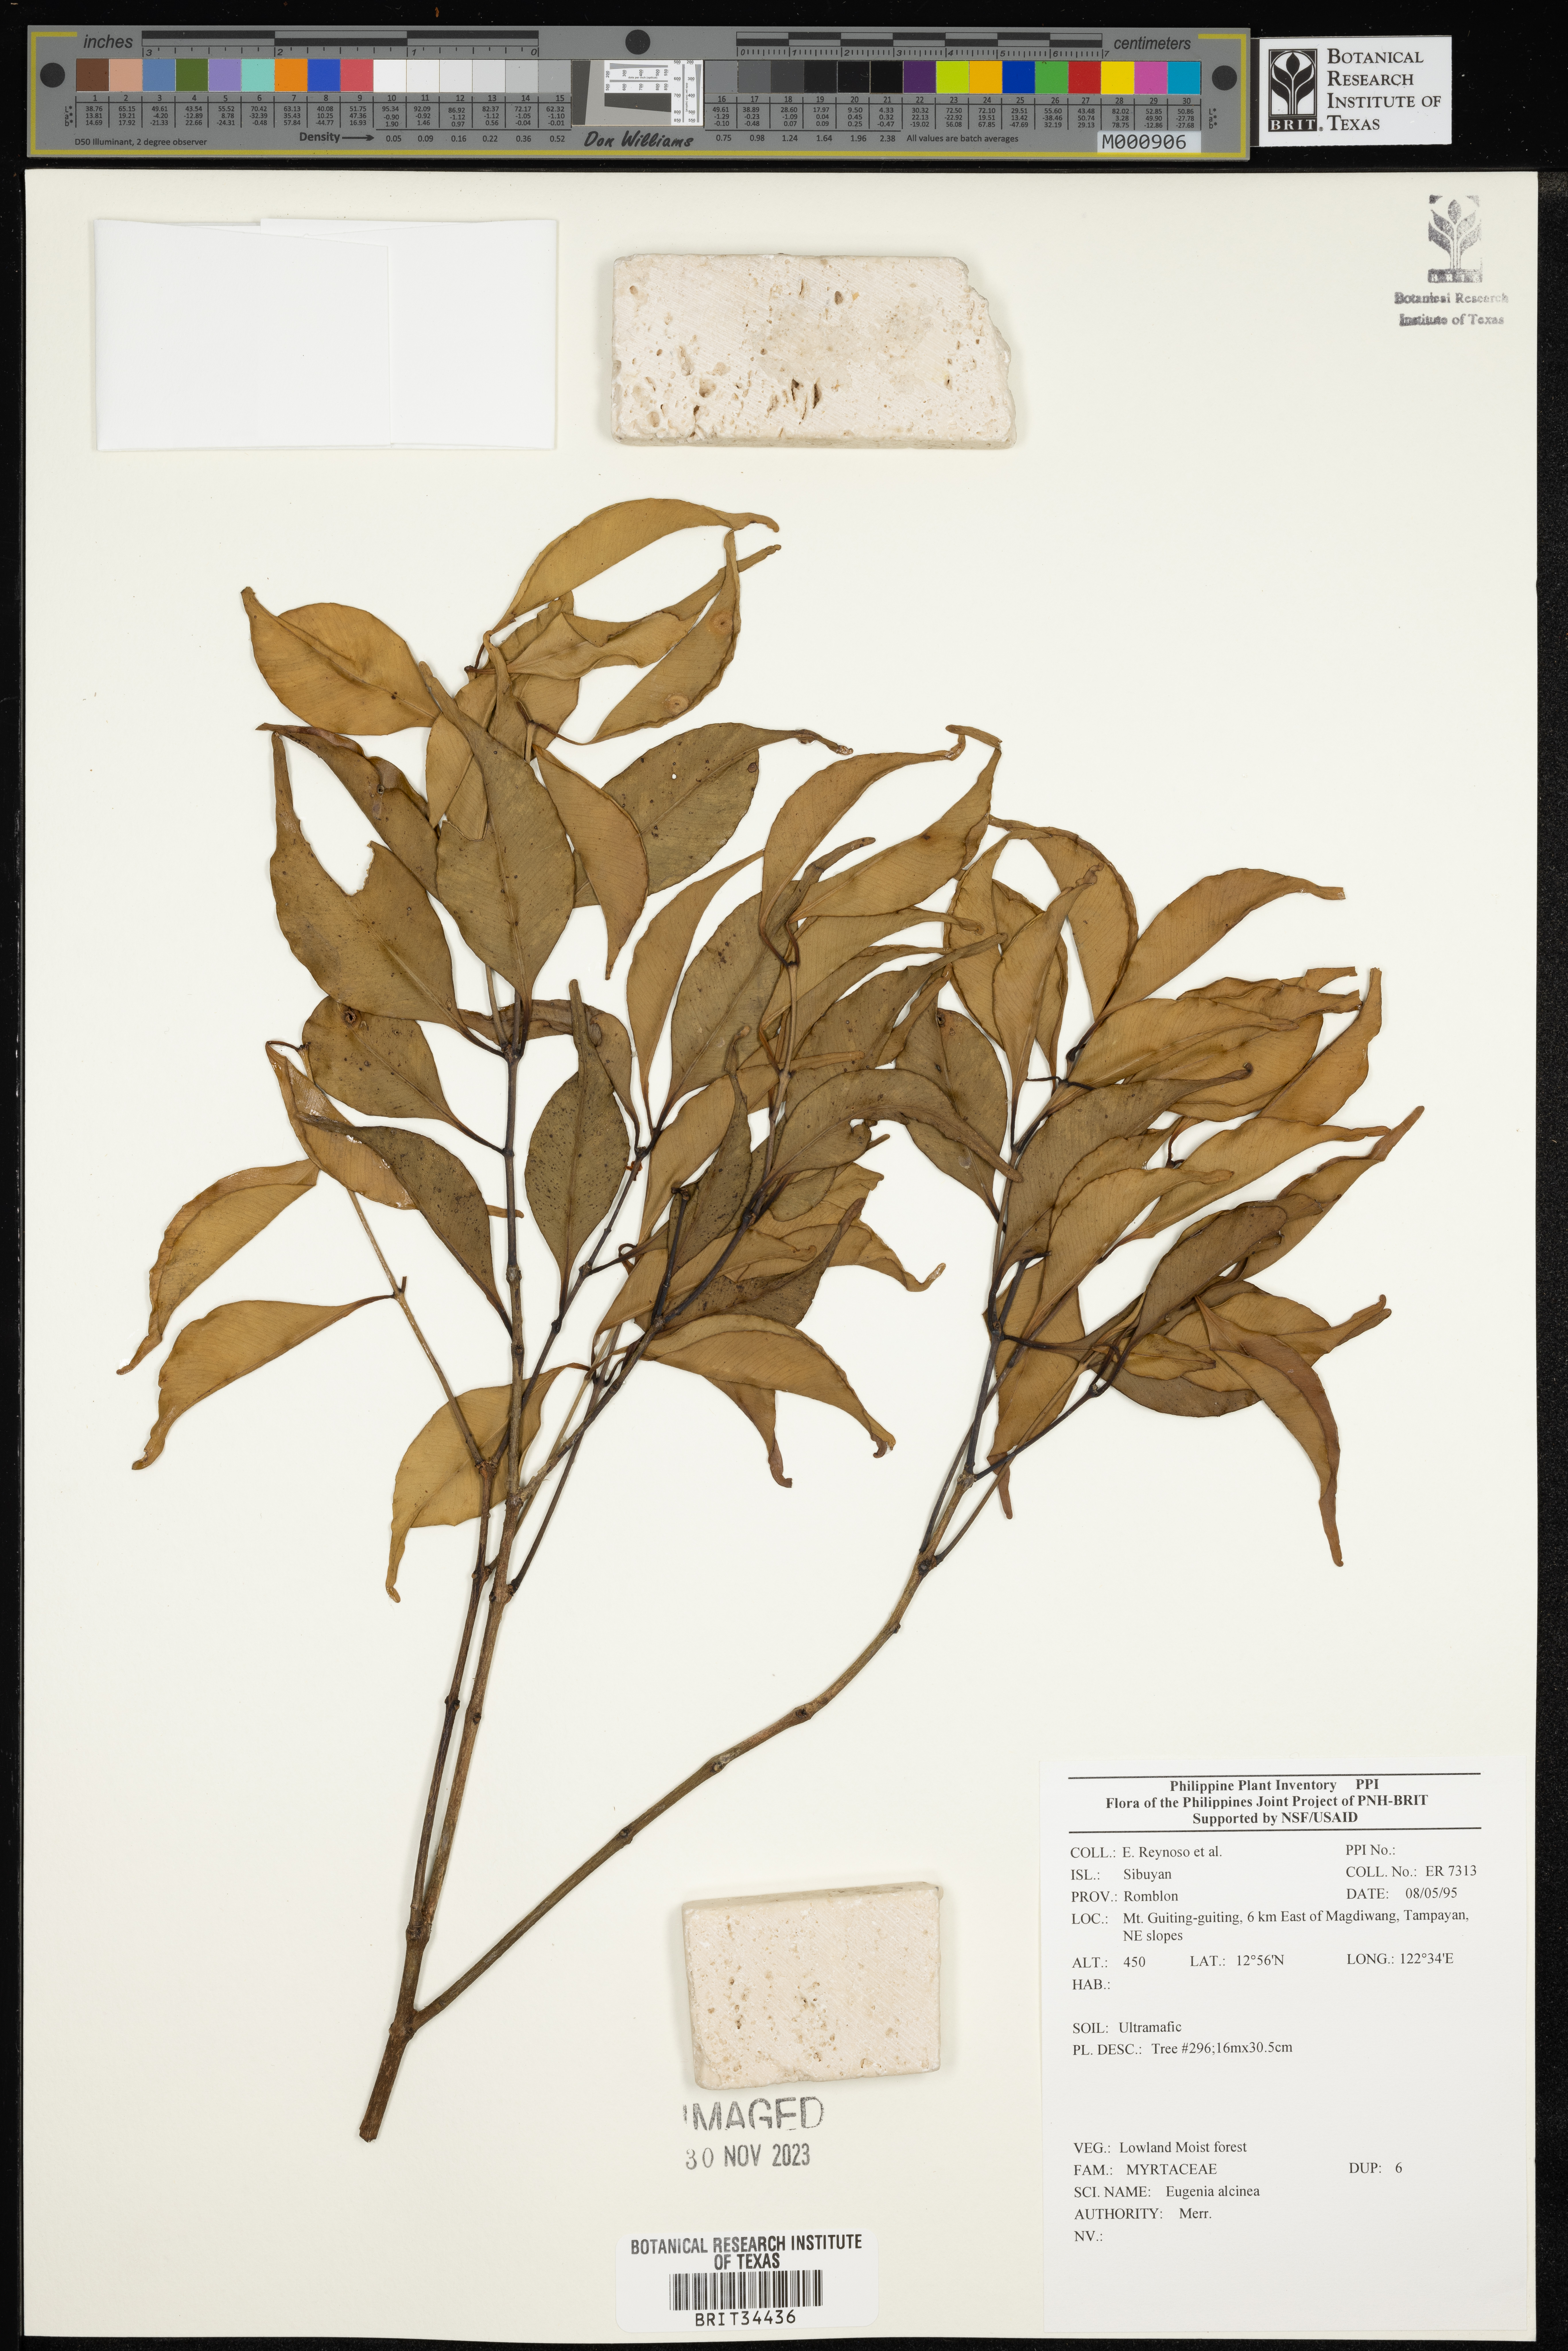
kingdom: Plantae
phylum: Tracheophyta
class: Magnoliopsida
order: Myrtales
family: Myrtaceae
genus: Eugenia
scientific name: Eugenia
